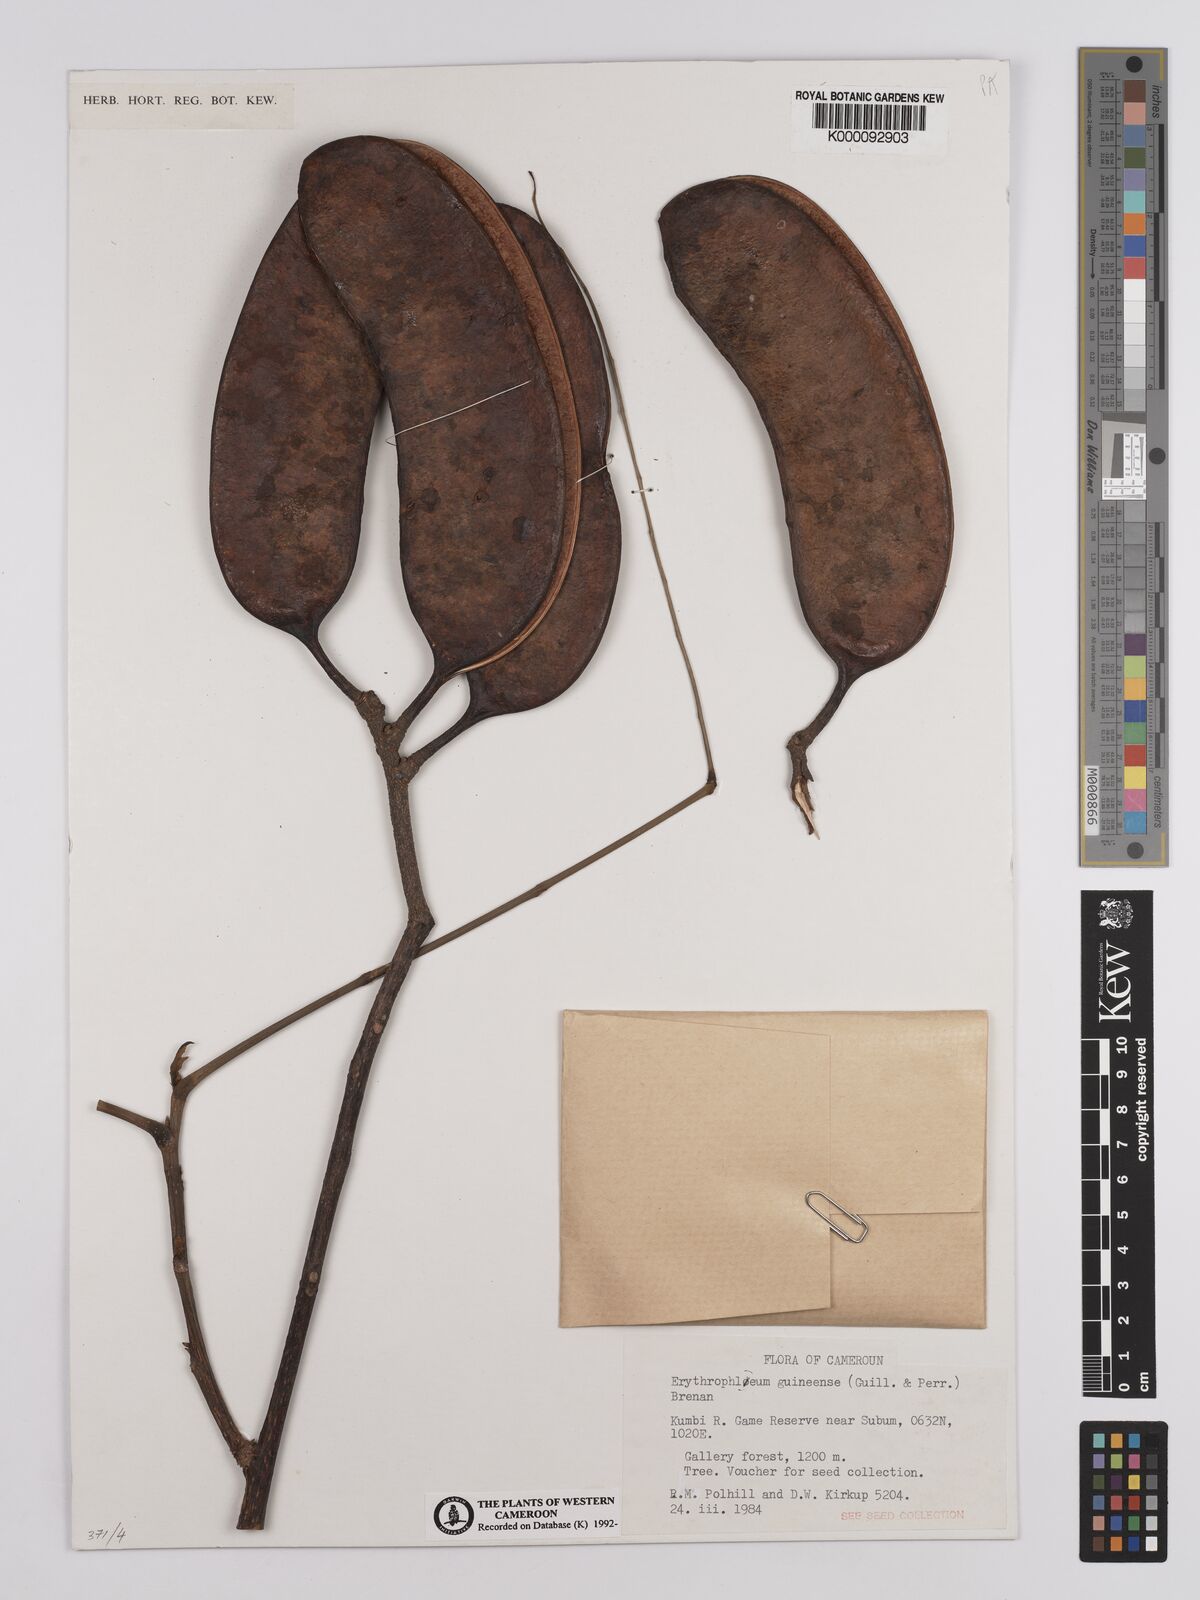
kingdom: Plantae
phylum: Tracheophyta
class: Magnoliopsida
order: Fabales
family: Fabaceae
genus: Erythrophleum
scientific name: Erythrophleum suaveolens
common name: Ordeal tree
